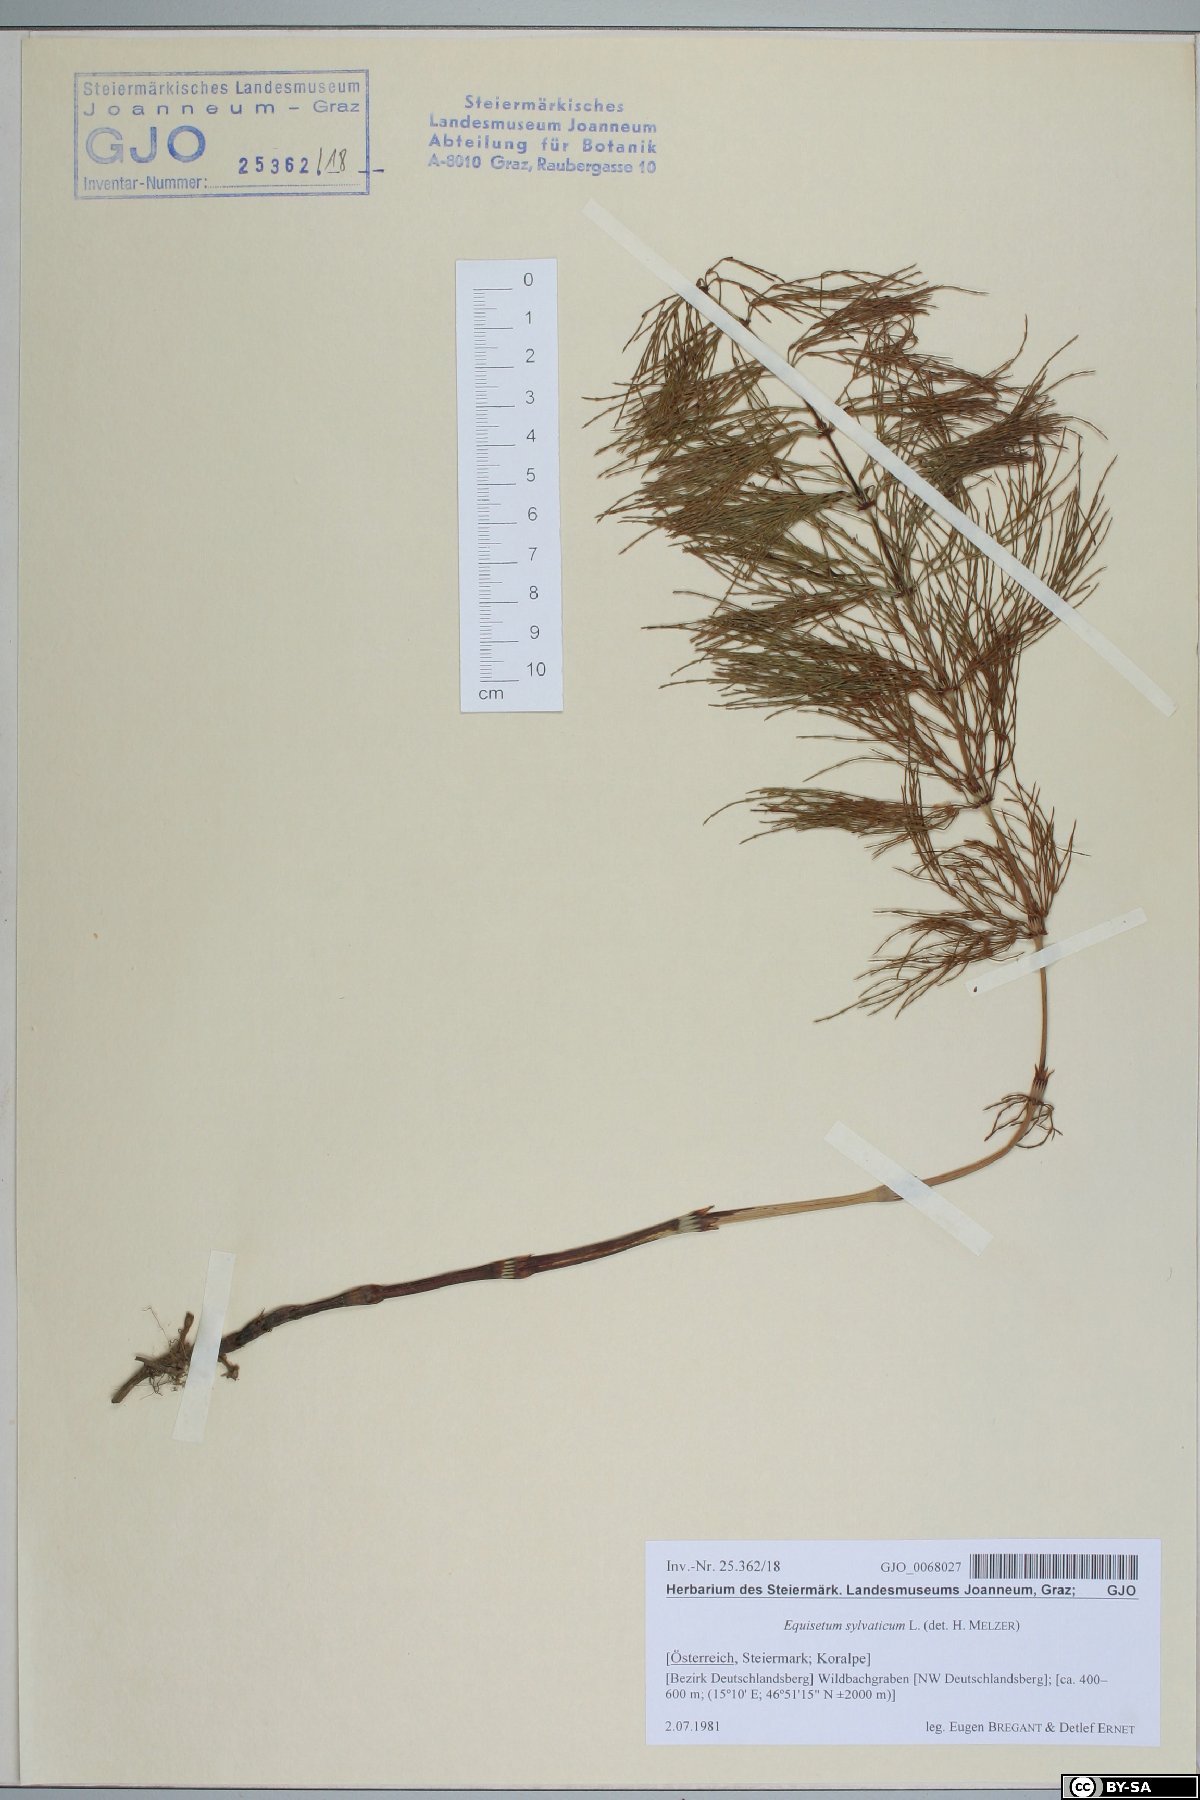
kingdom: Plantae
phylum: Tracheophyta
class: Polypodiopsida
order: Equisetales
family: Equisetaceae
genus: Equisetum
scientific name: Equisetum sylvaticum
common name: Wood horsetail
